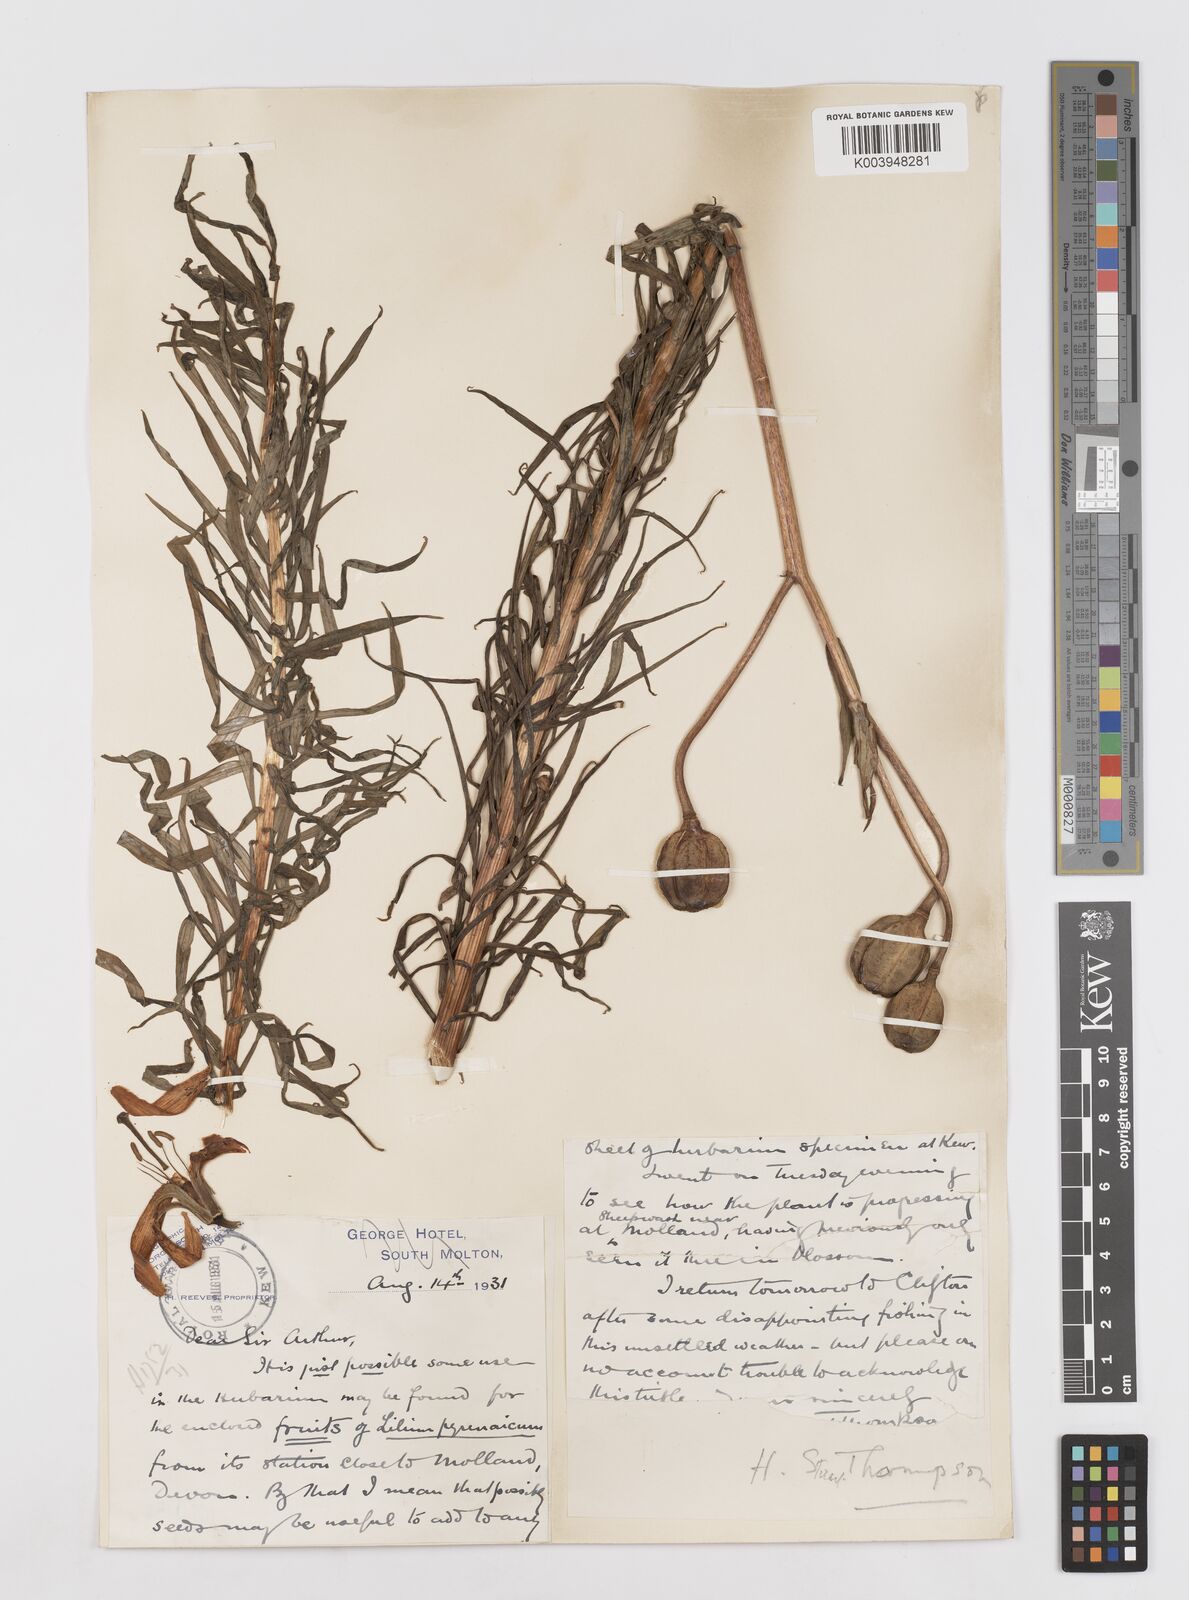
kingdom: Plantae
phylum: Tracheophyta
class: Liliopsida
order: Liliales
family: Liliaceae
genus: Lilium
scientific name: Lilium pyrenaicum
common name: Pyrenean lily
